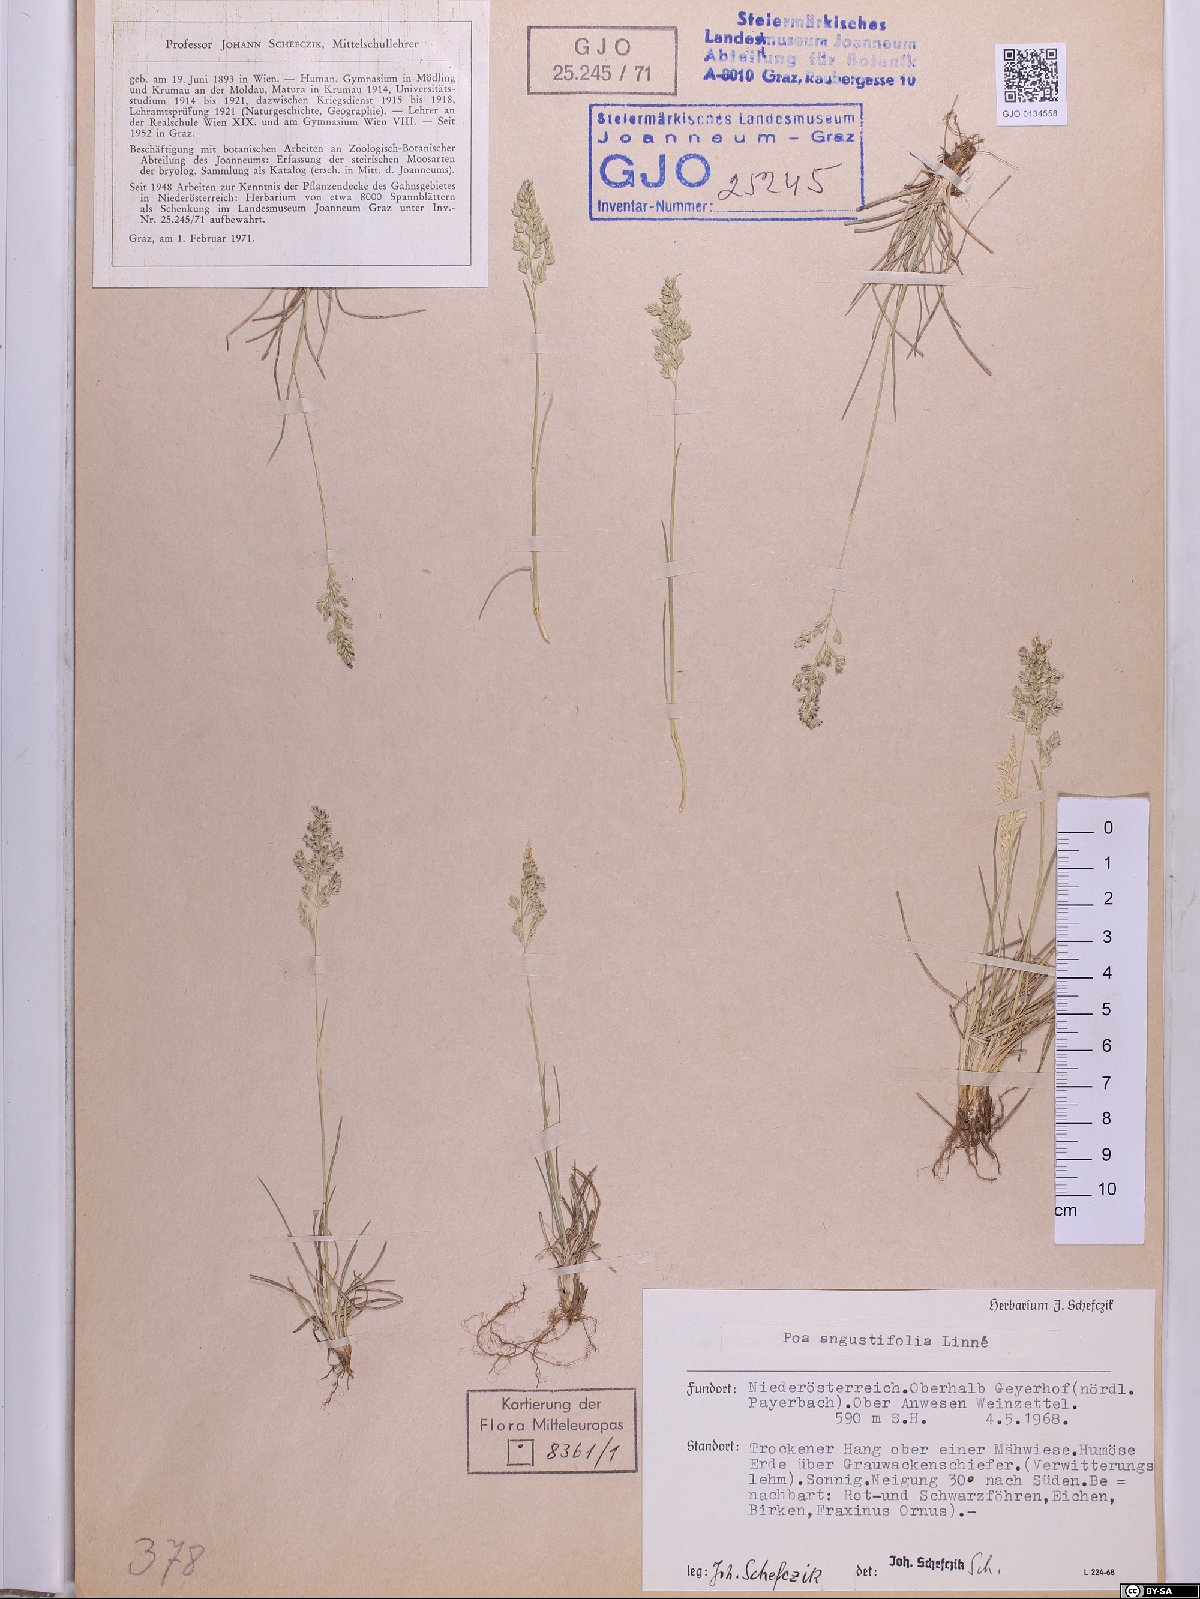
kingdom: Plantae
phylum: Tracheophyta
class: Liliopsida
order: Poales
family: Poaceae
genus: Poa
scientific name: Poa angustifolia
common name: Narrow-leaved meadow-grass
